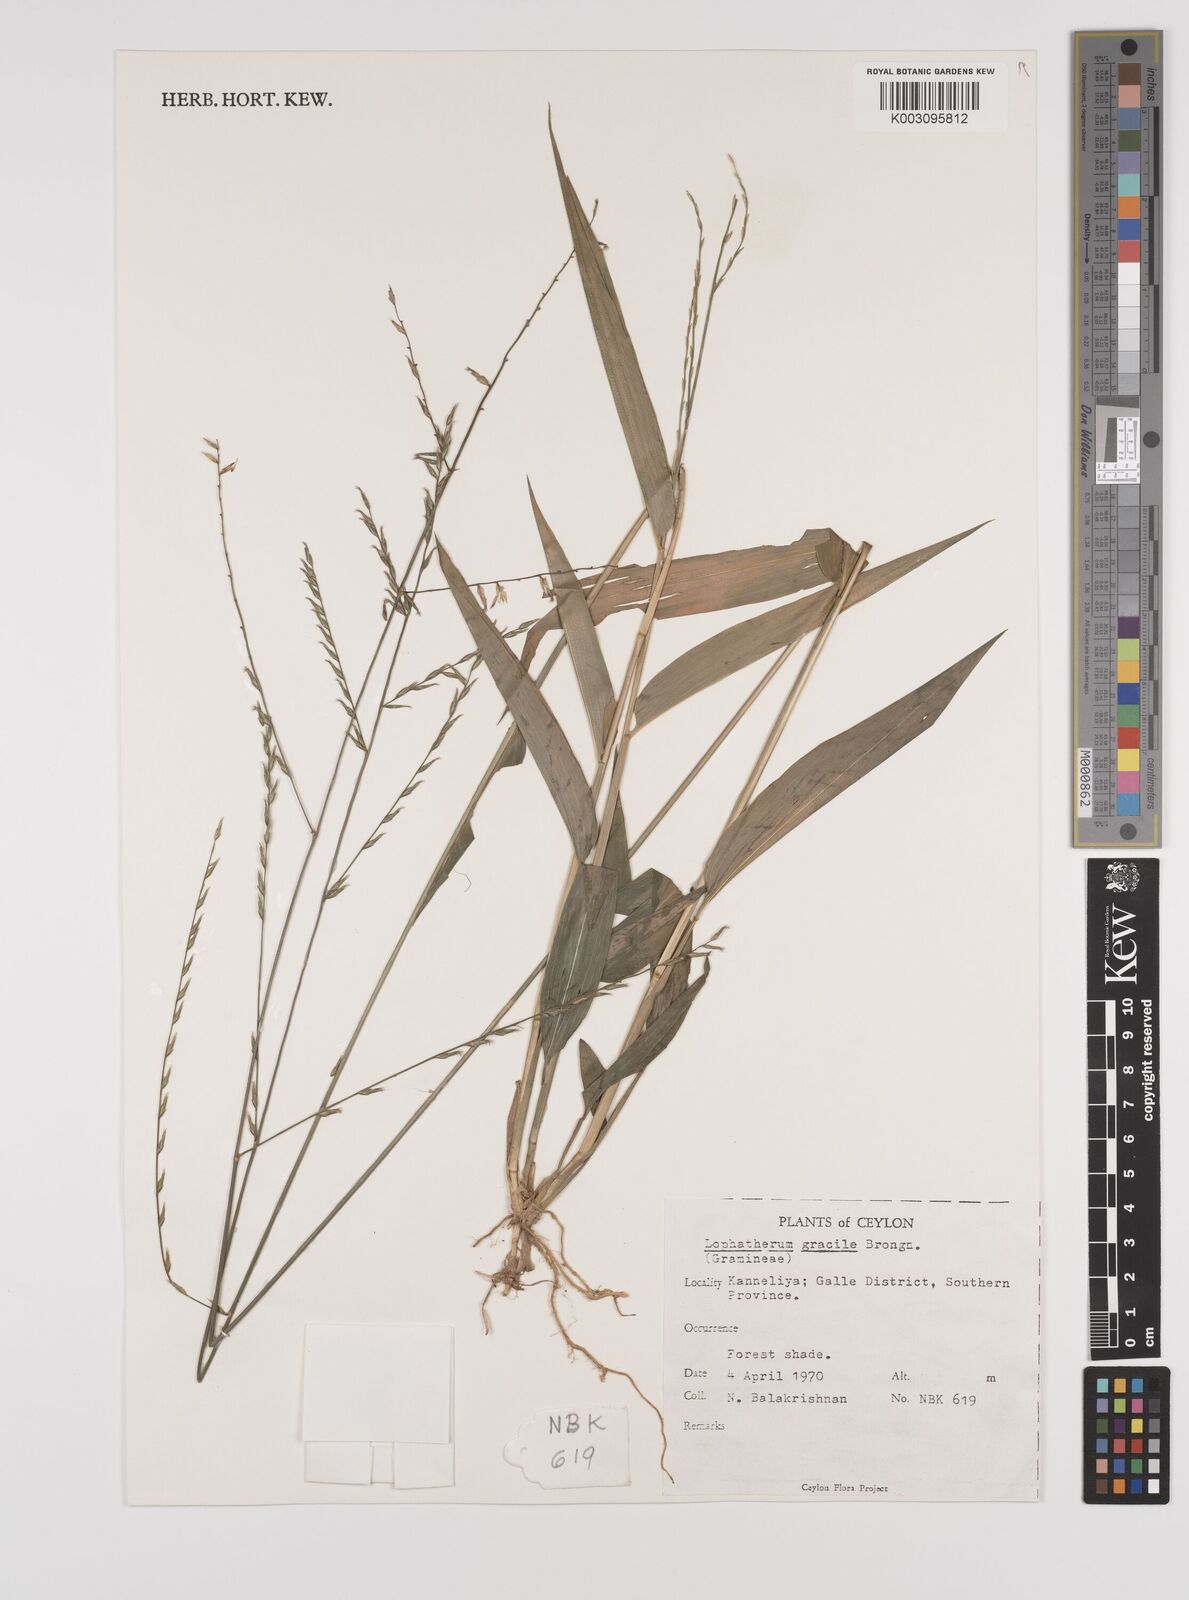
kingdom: Plantae
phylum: Tracheophyta
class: Liliopsida
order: Poales
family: Poaceae
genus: Lophatherum
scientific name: Lophatherum gracile
